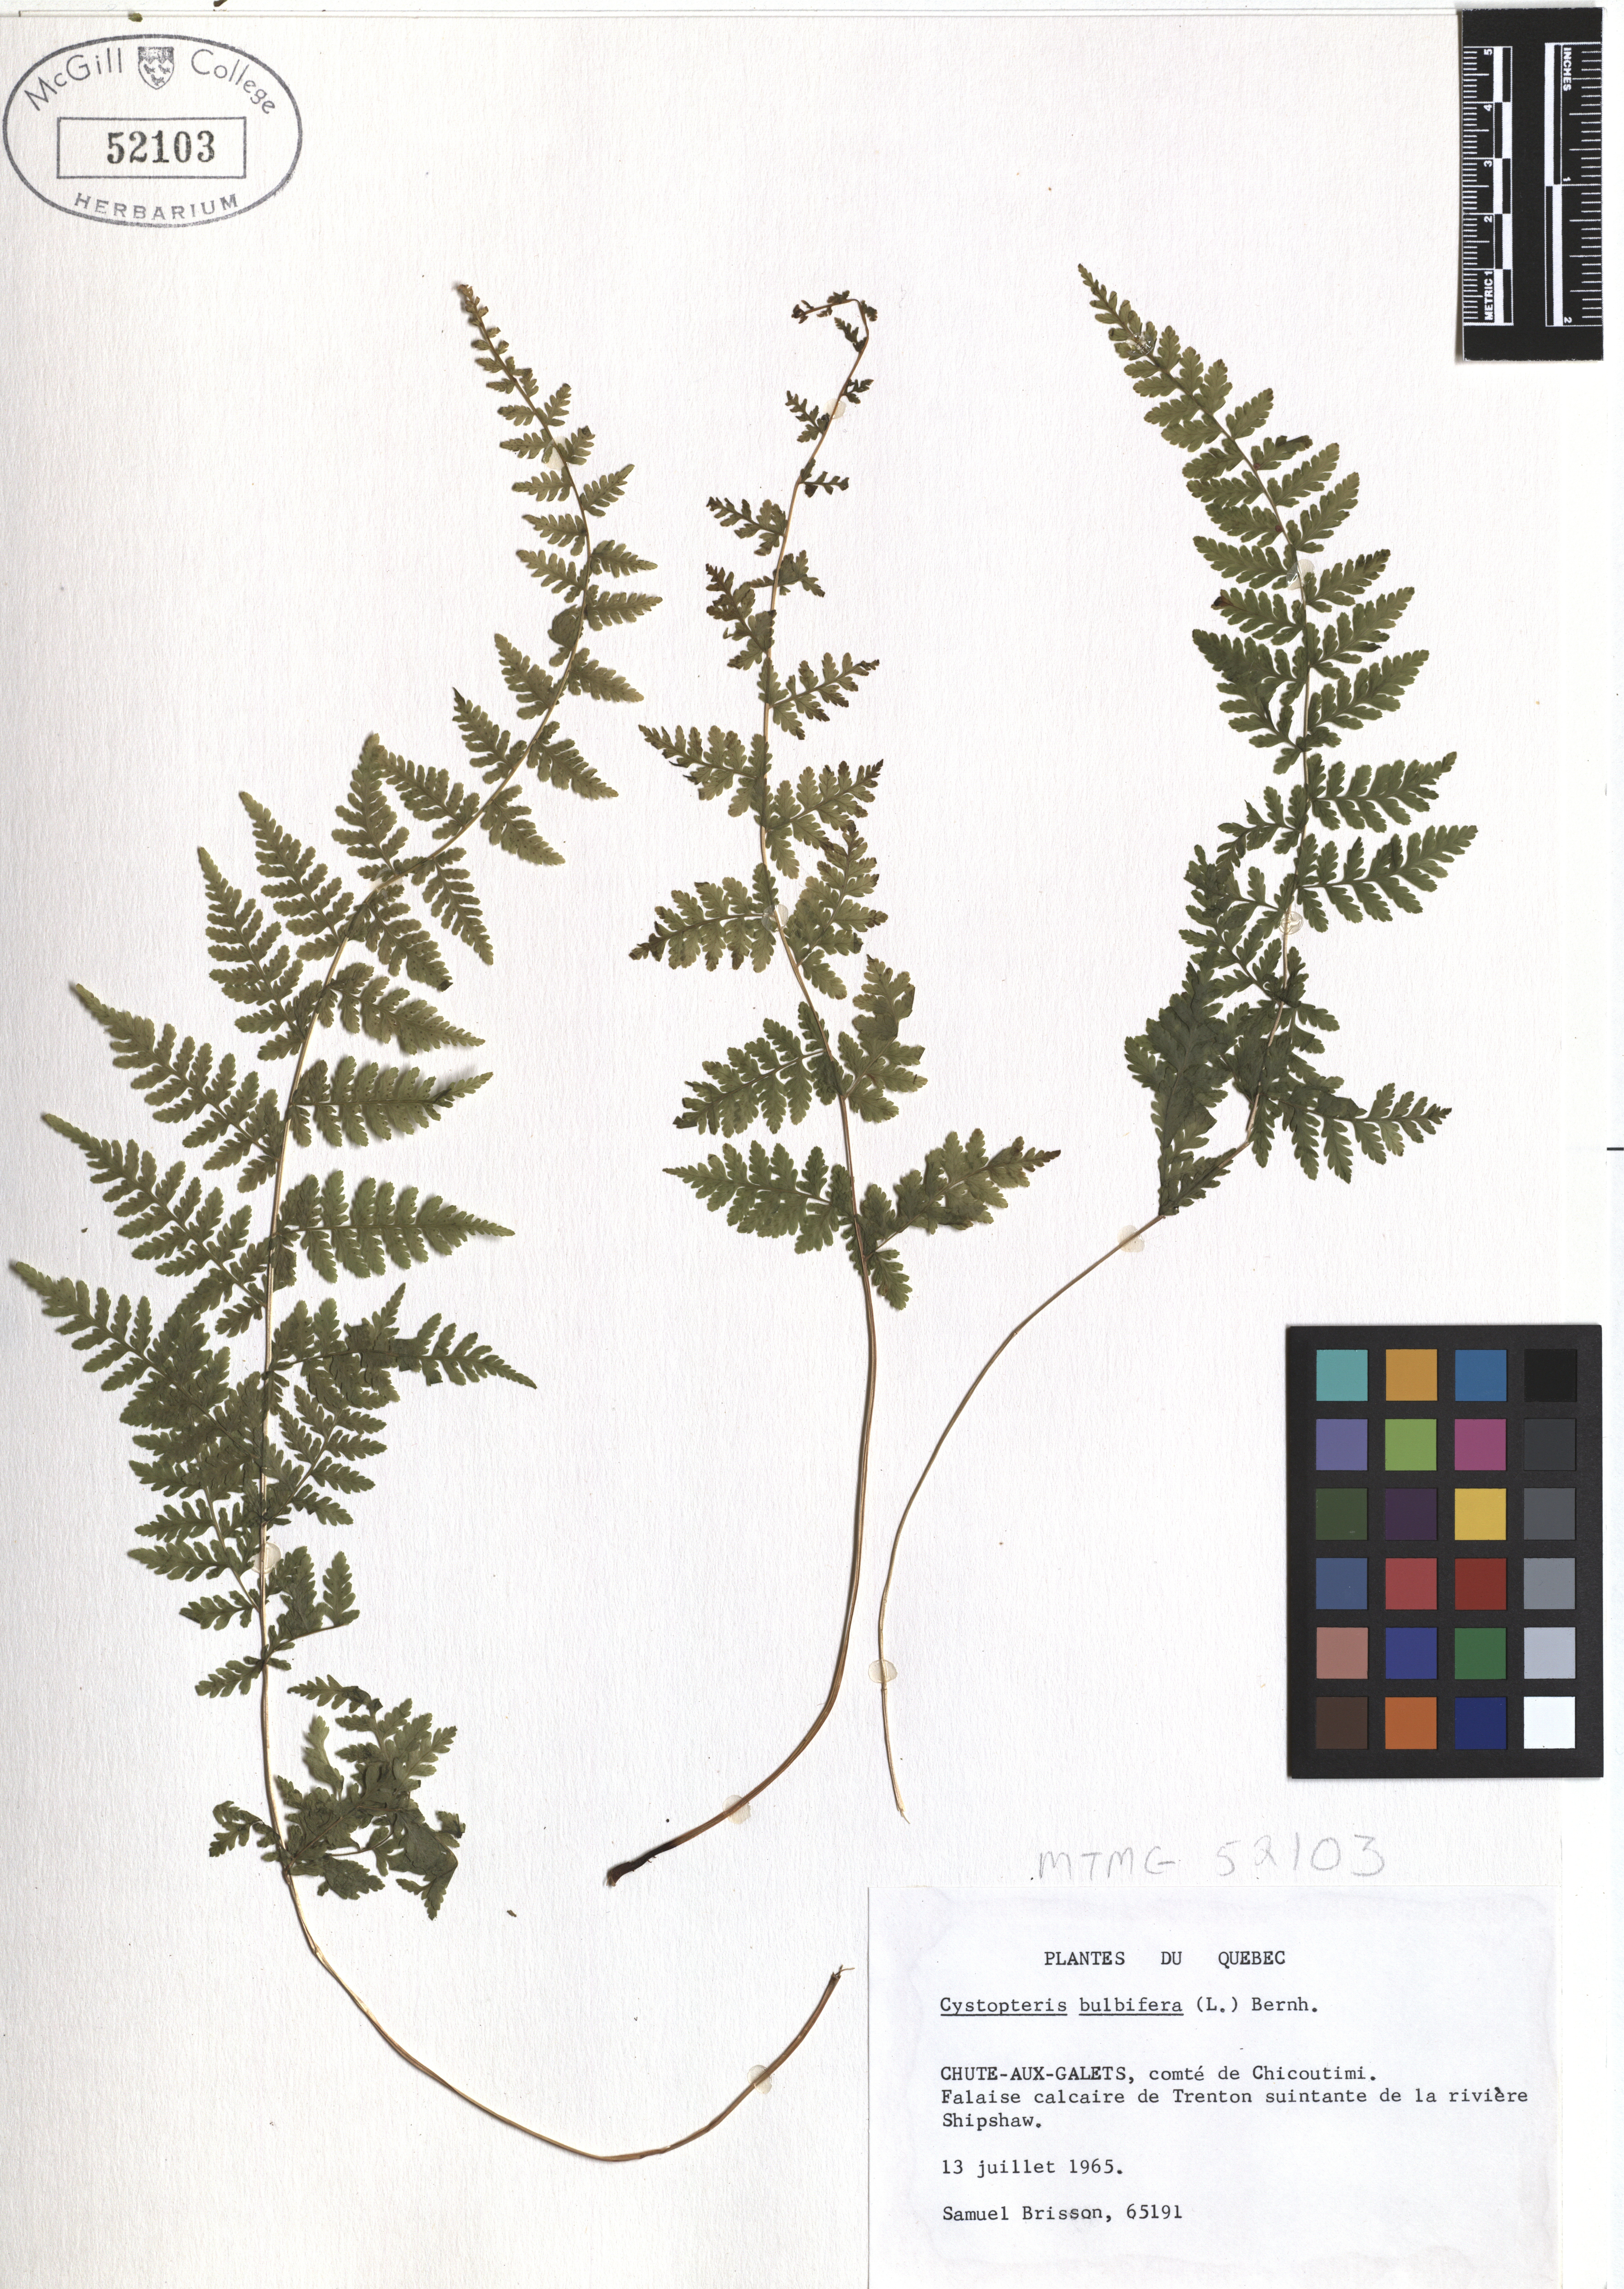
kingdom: Plantae
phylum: Tracheophyta
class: Polypodiopsida
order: Polypodiales
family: Cystopteridaceae
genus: Cystopteris
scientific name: Cystopteris bulbifera
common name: Bulblet bladder fern
